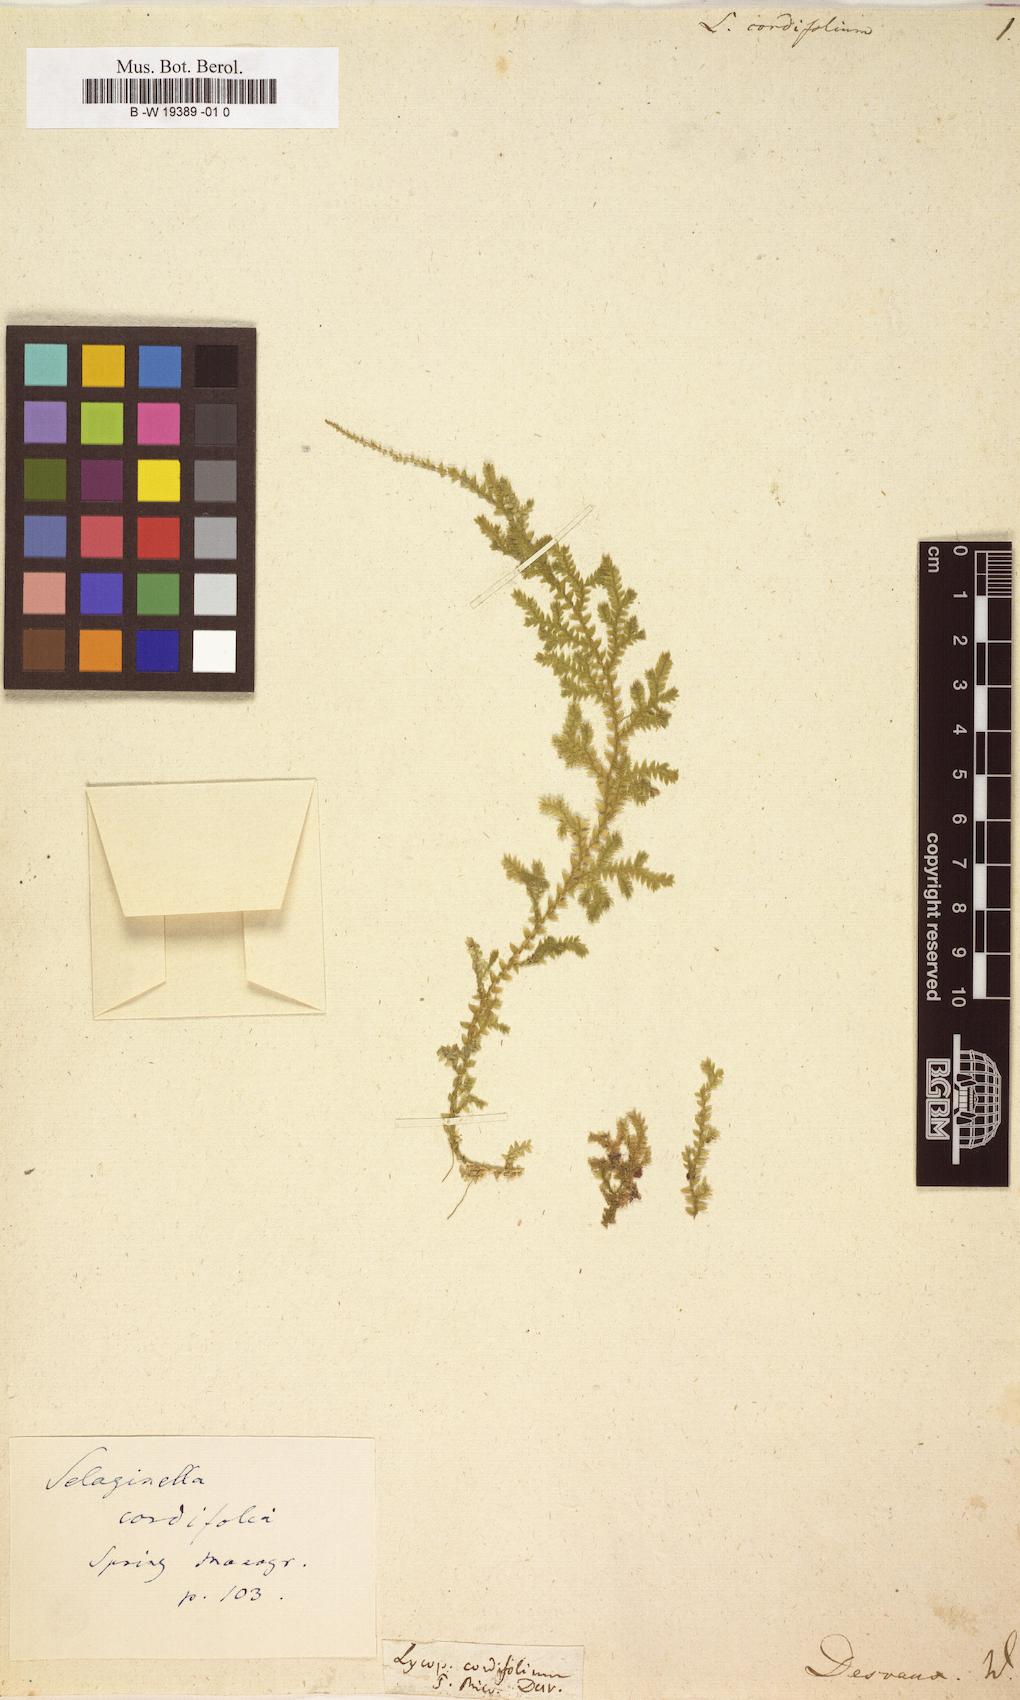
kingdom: Plantae
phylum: Tracheophyta
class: Lycopodiopsida
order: Selaginellales
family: Selaginellaceae
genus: Selaginella
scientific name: Selaginella
